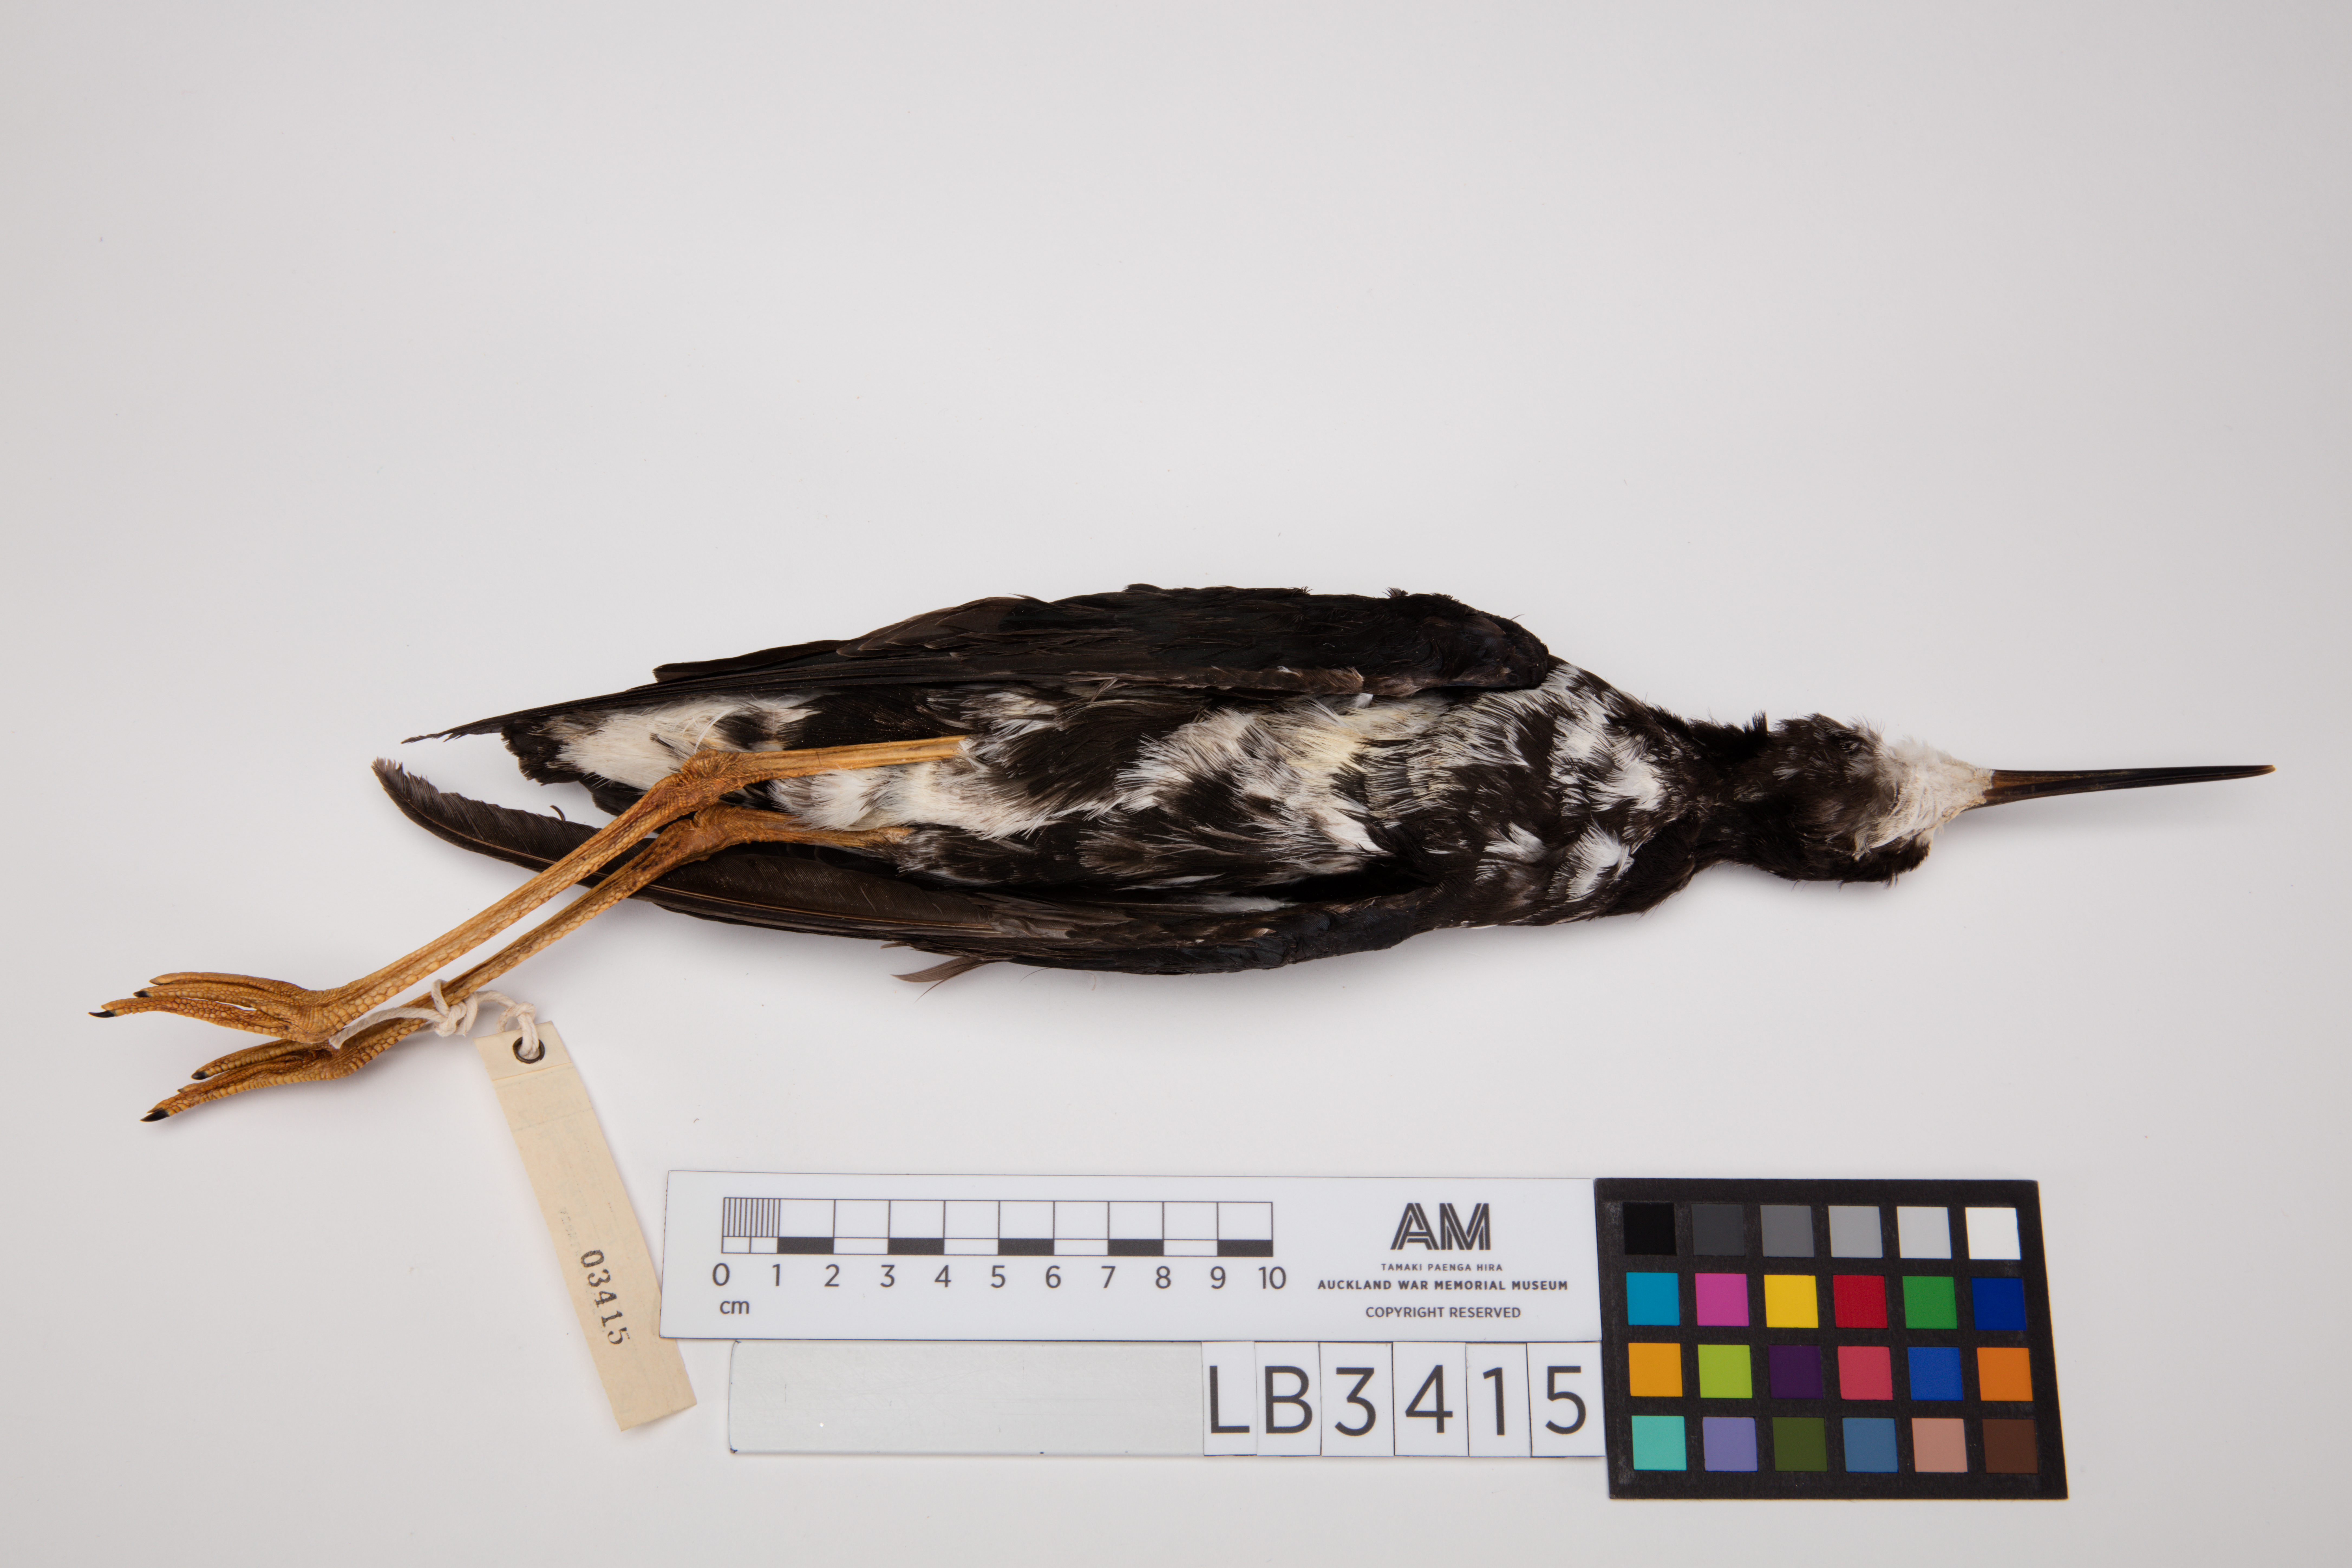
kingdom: Animalia
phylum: Chordata
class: Aves
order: Charadriiformes
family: Recurvirostridae
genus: Himantopus
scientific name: Himantopus novaezelandiae
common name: Black stilt
